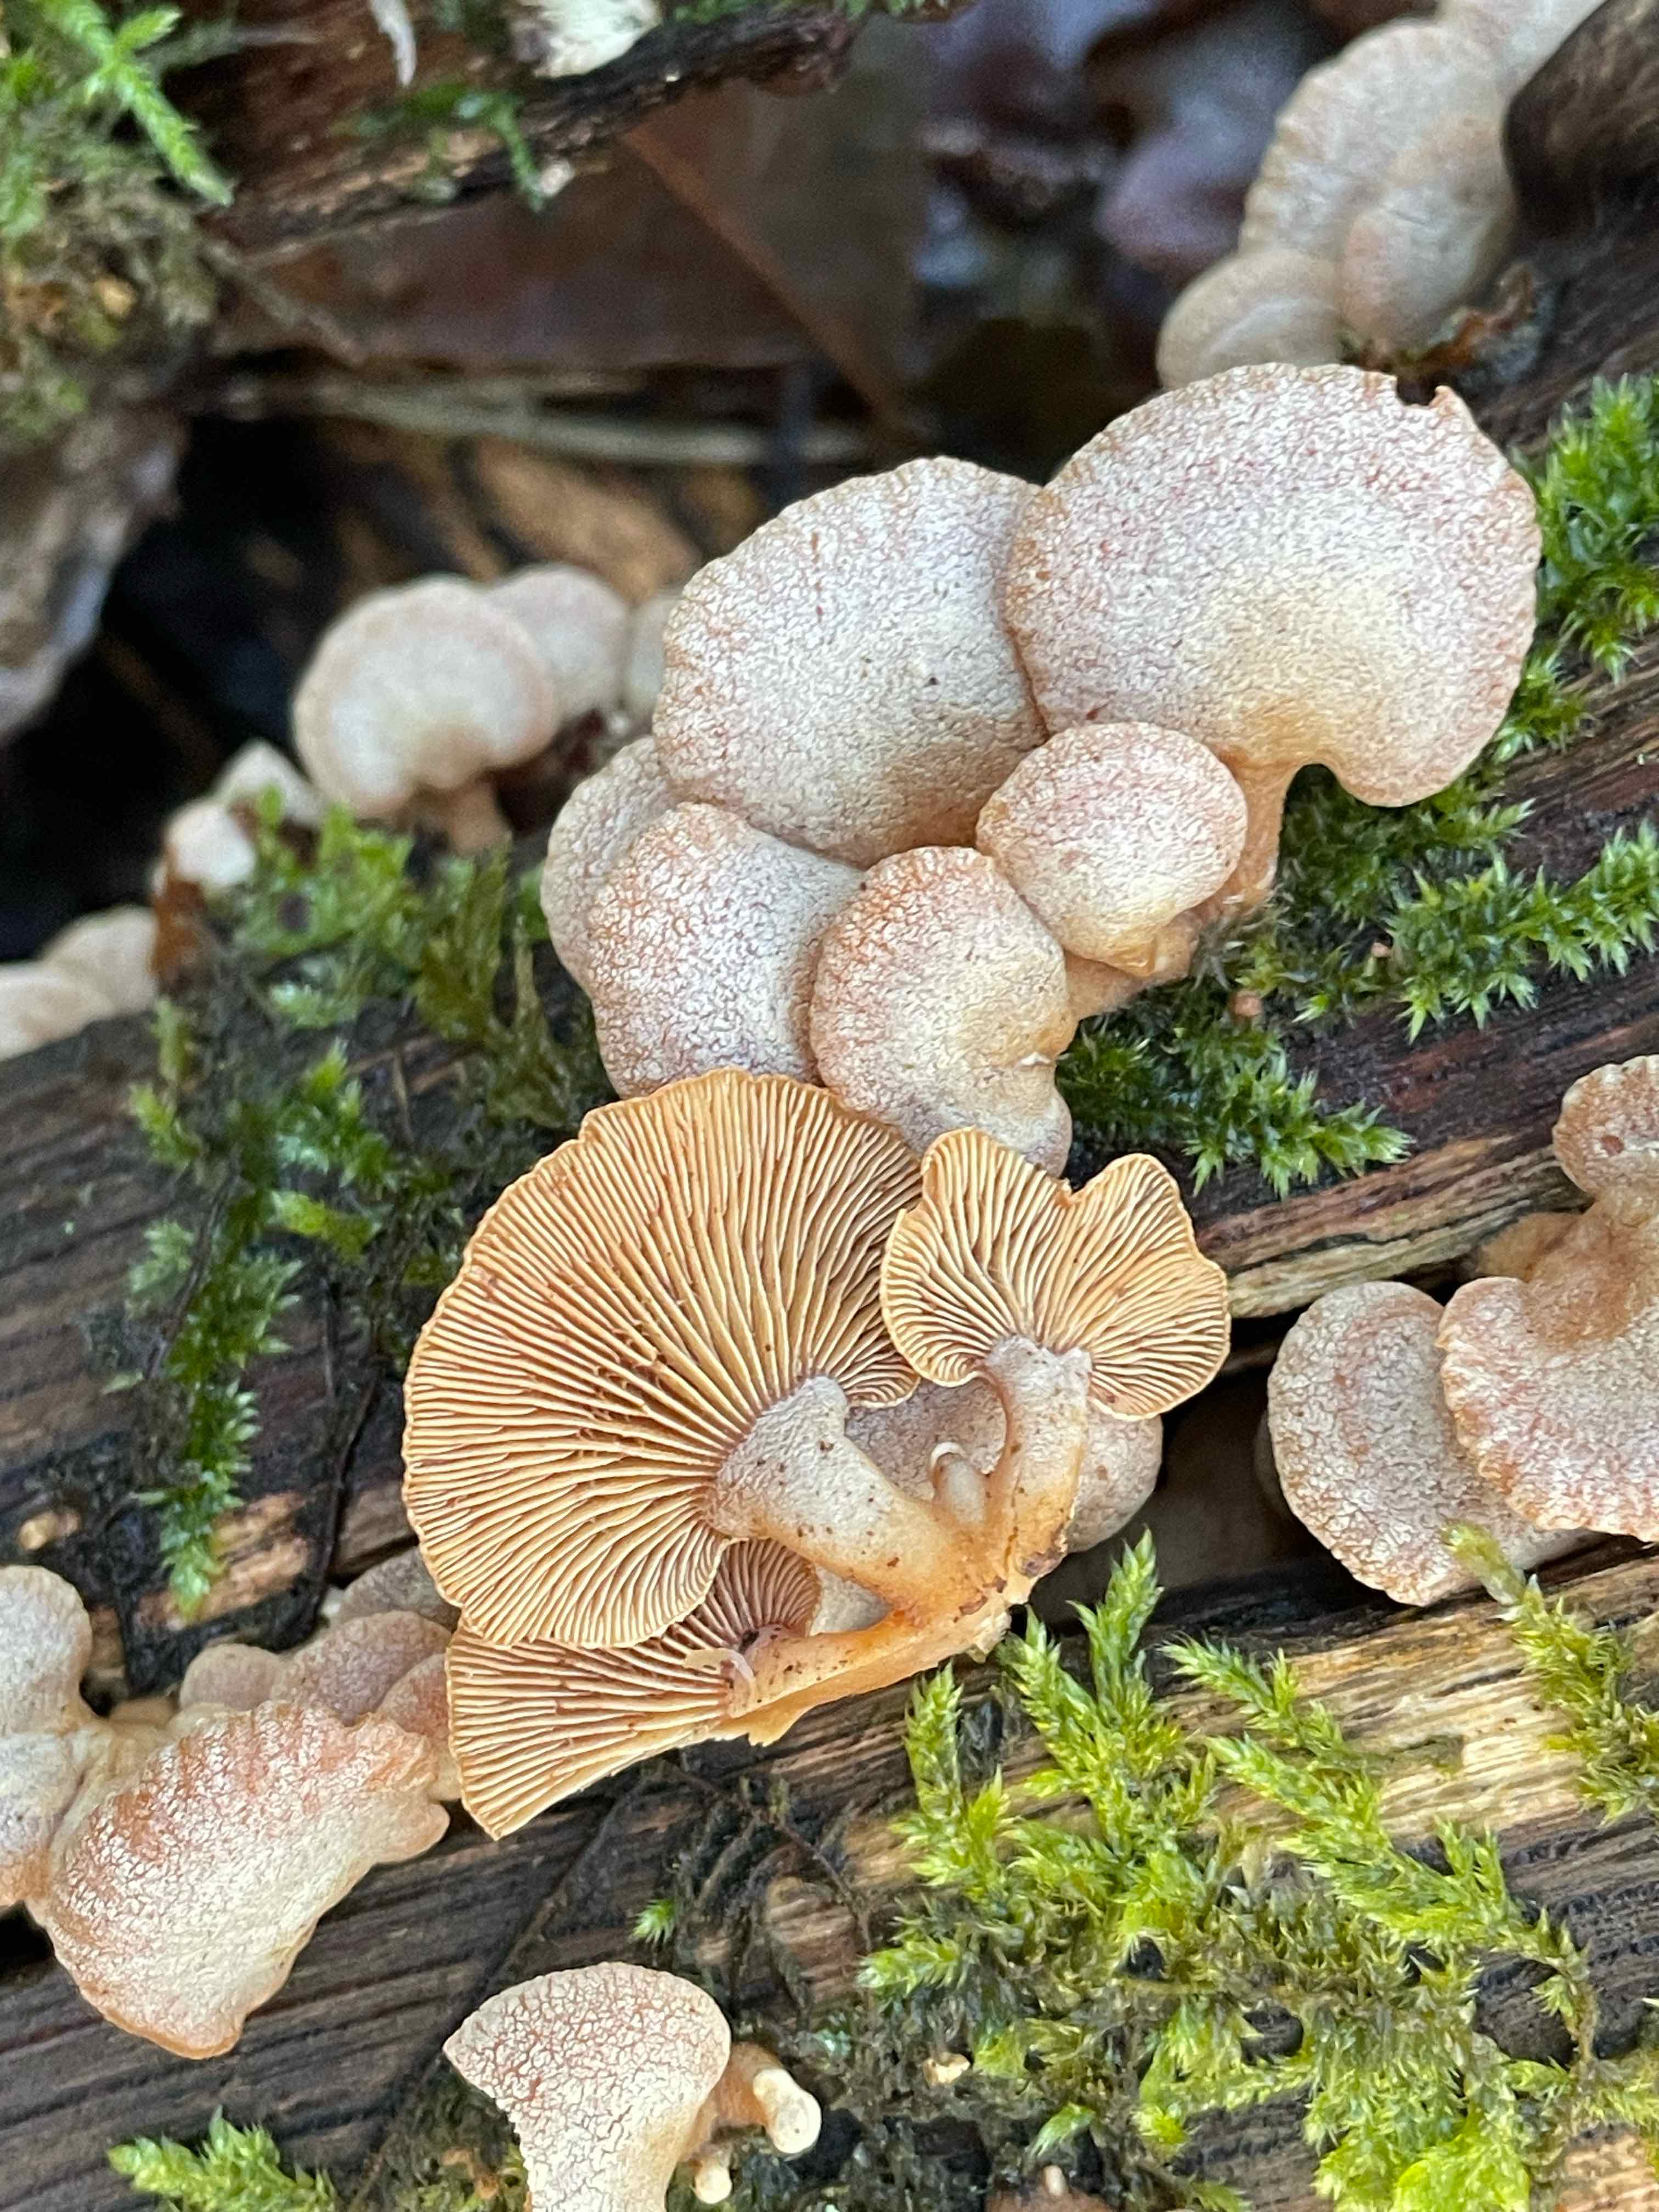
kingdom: Fungi
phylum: Basidiomycota
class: Agaricomycetes
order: Agaricales
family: Mycenaceae
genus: Panellus
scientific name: Panellus stipticus
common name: kliddet epaulethat
